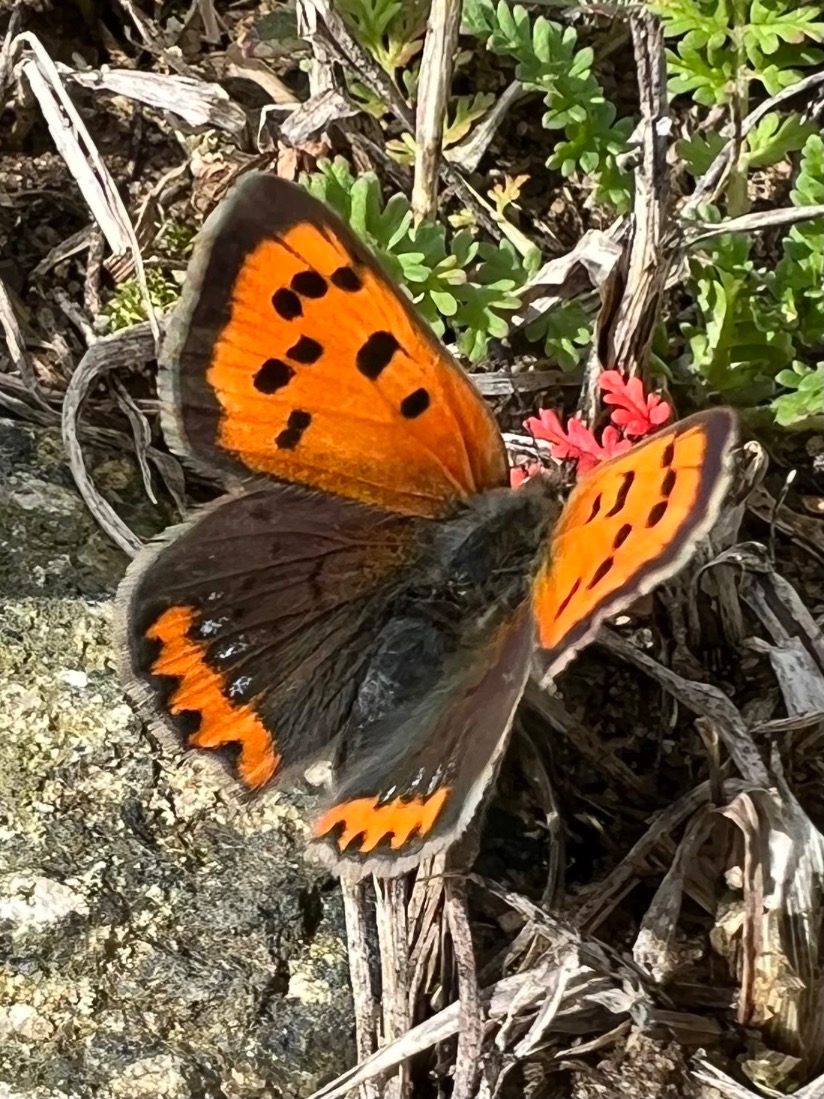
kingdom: Animalia
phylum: Arthropoda
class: Insecta
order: Lepidoptera
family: Lycaenidae
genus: Lycaena
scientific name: Lycaena phlaeas
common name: Lille ildfugl
